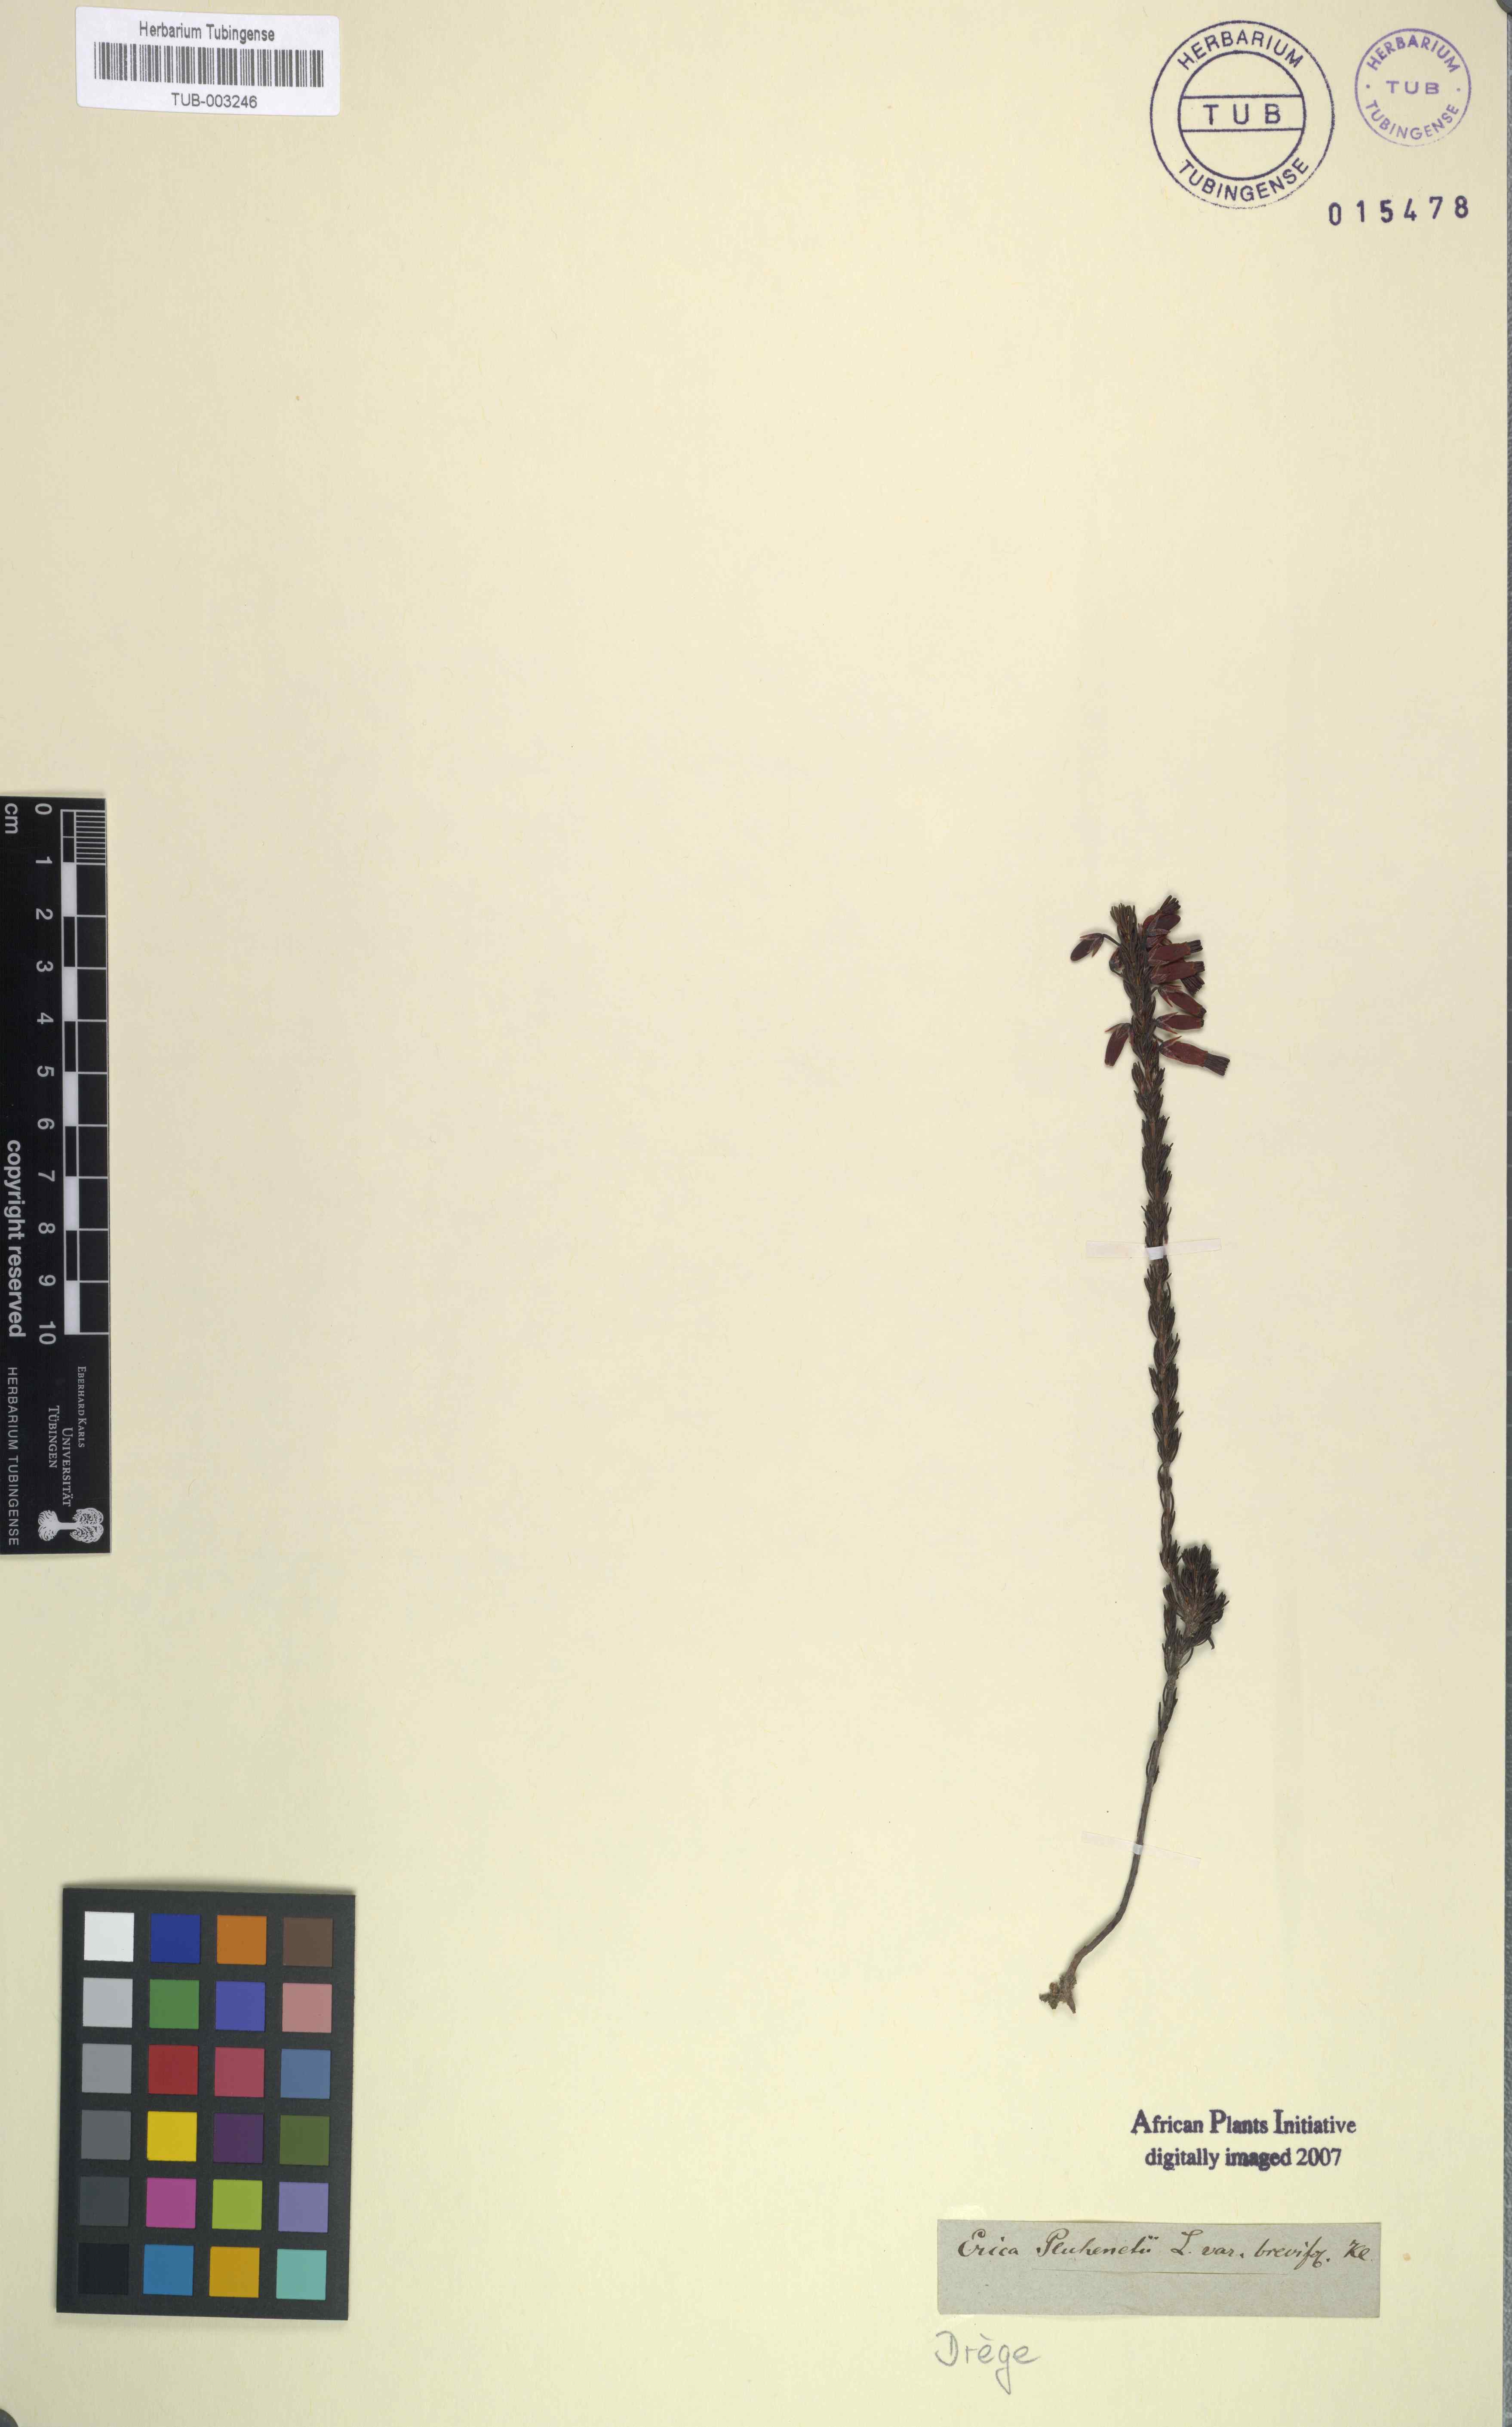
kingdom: Plantae
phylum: Tracheophyta
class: Magnoliopsida
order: Ericales
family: Ericaceae
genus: Erica
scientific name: Erica coccinea
